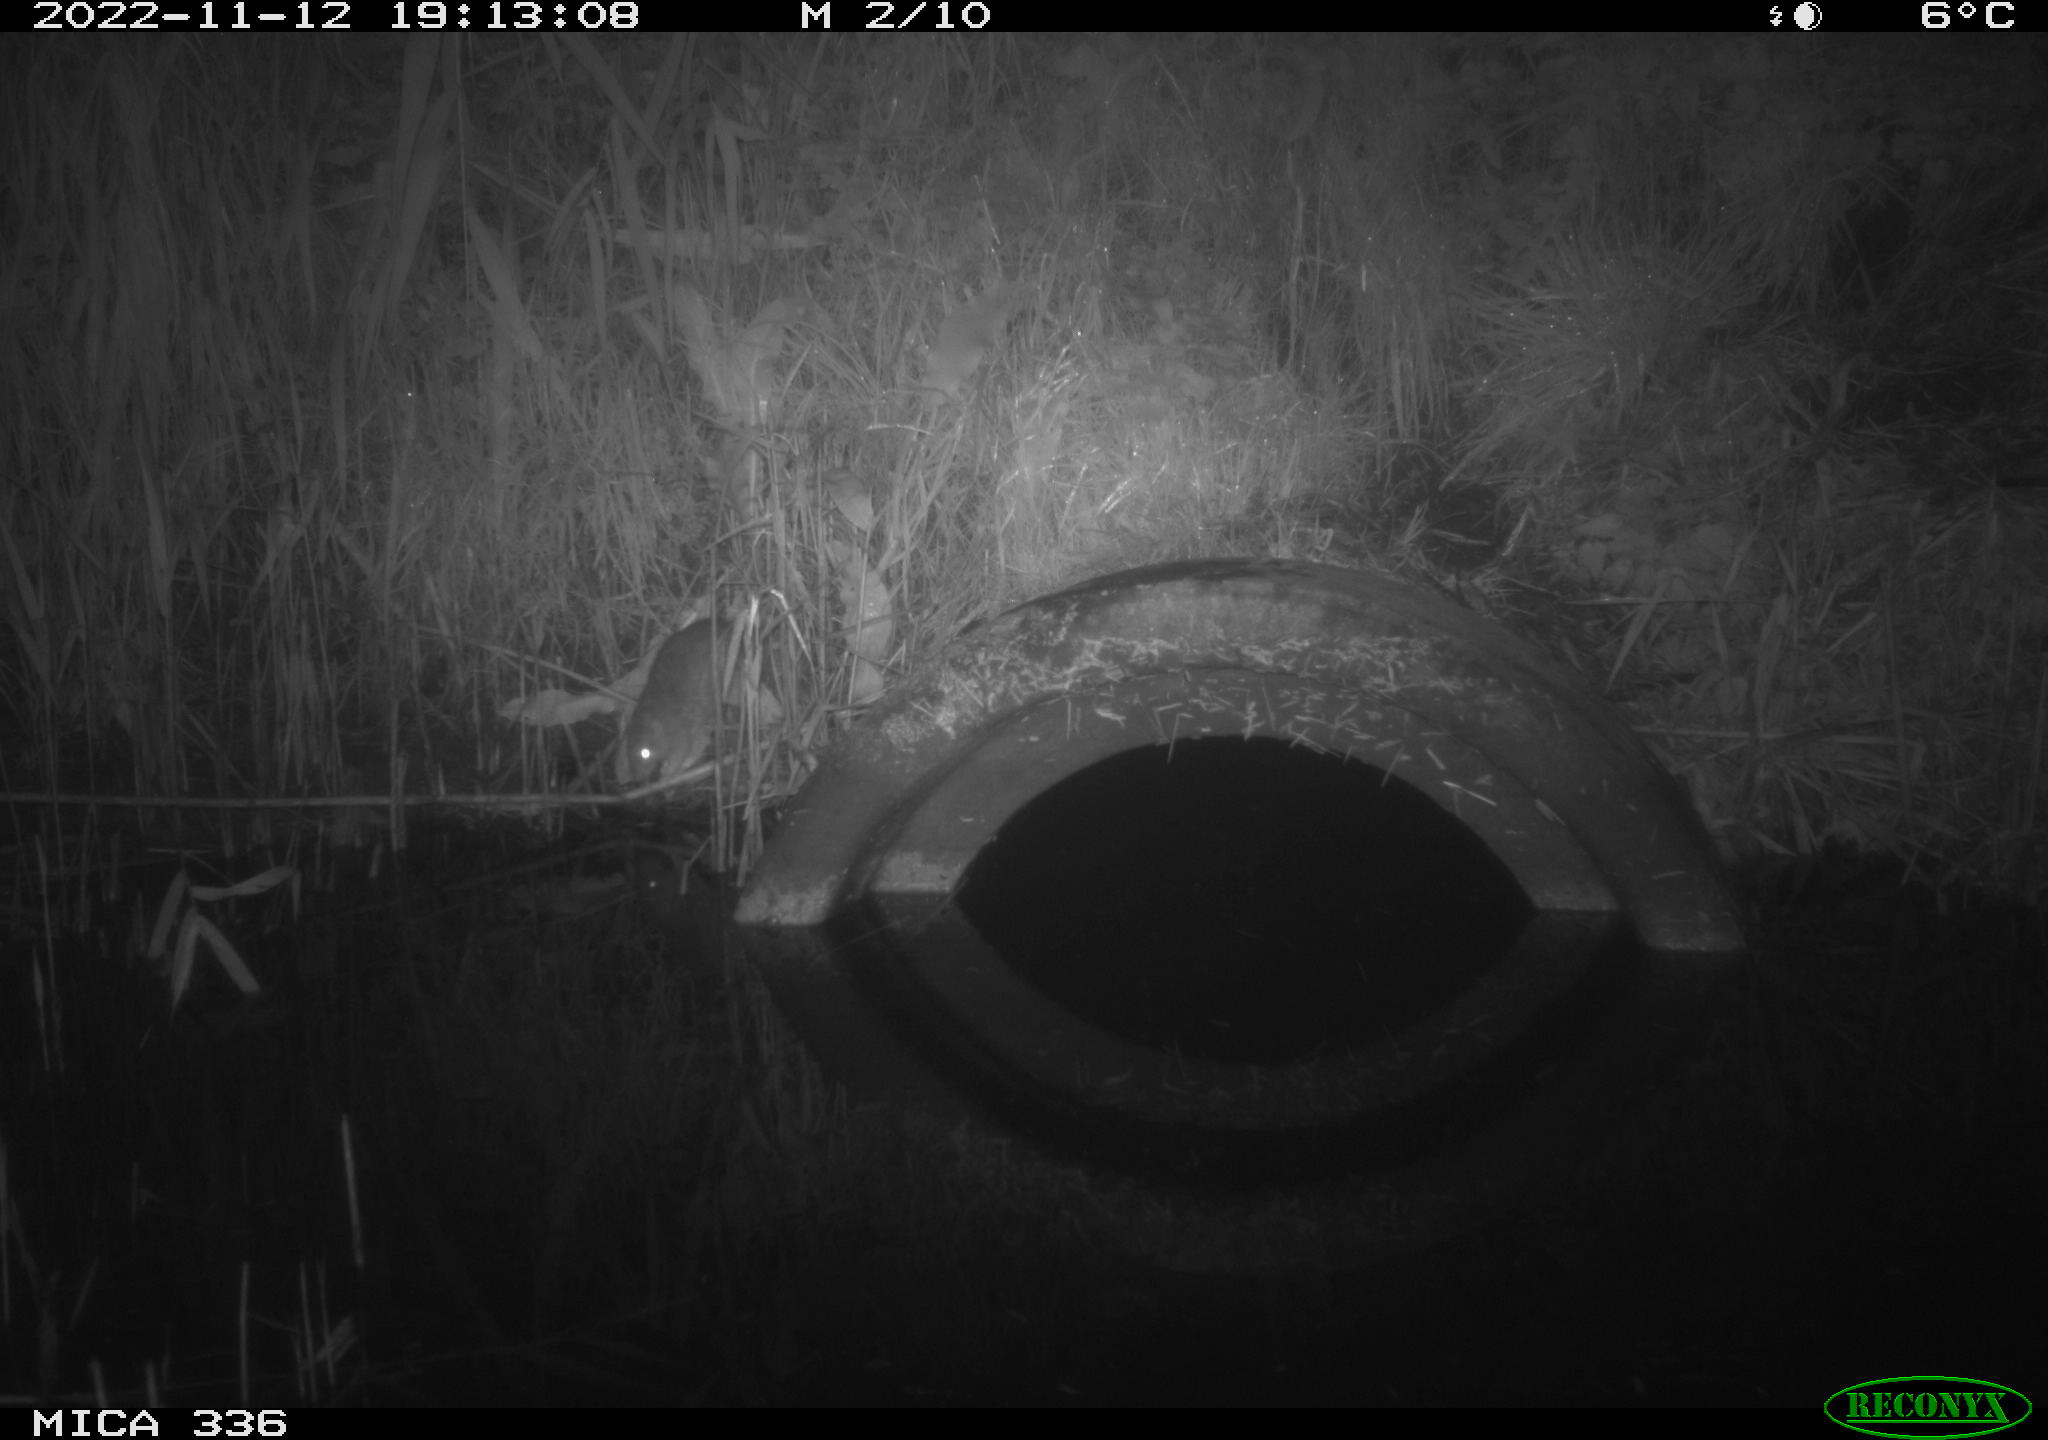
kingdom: Animalia
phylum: Chordata
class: Mammalia
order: Rodentia
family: Muridae
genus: Rattus
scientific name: Rattus norvegicus
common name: Brown rat
